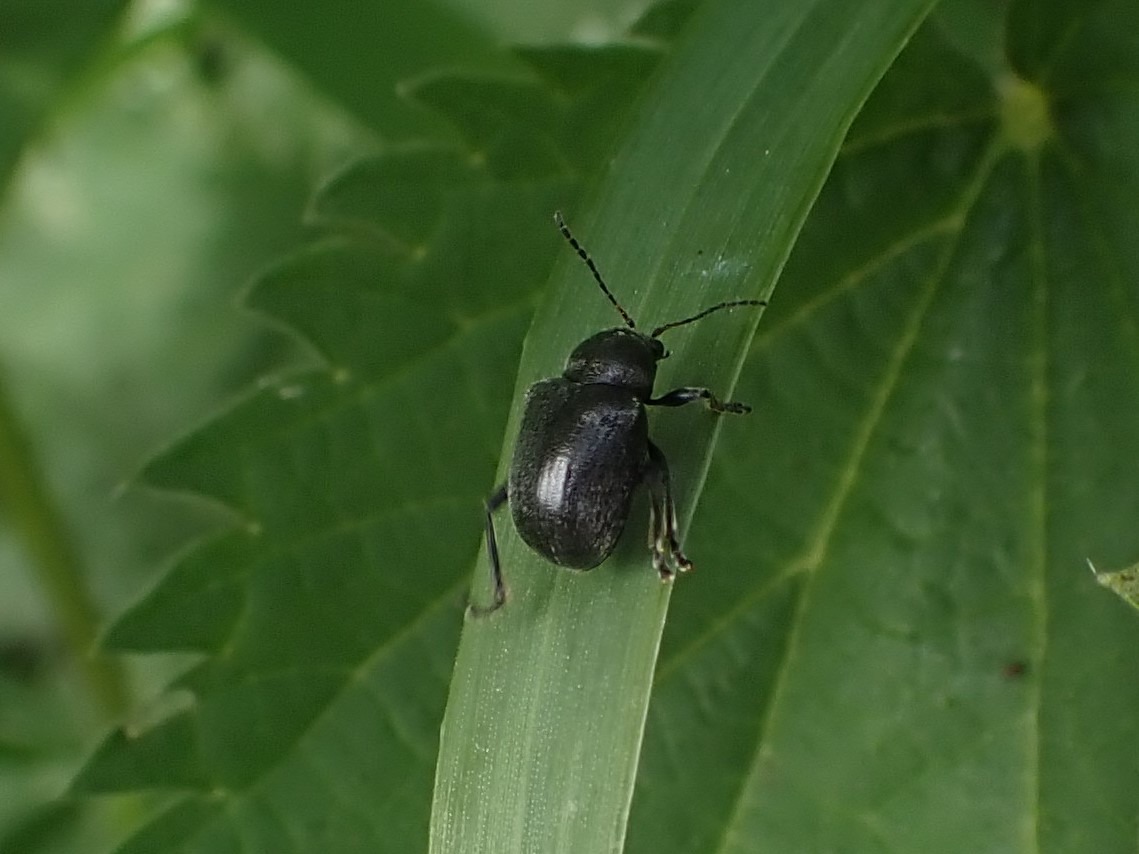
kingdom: Animalia
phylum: Arthropoda
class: Insecta
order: Coleoptera
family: Chrysomelidae
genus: Bromius
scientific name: Bromius obscurus
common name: Gederamsbille
